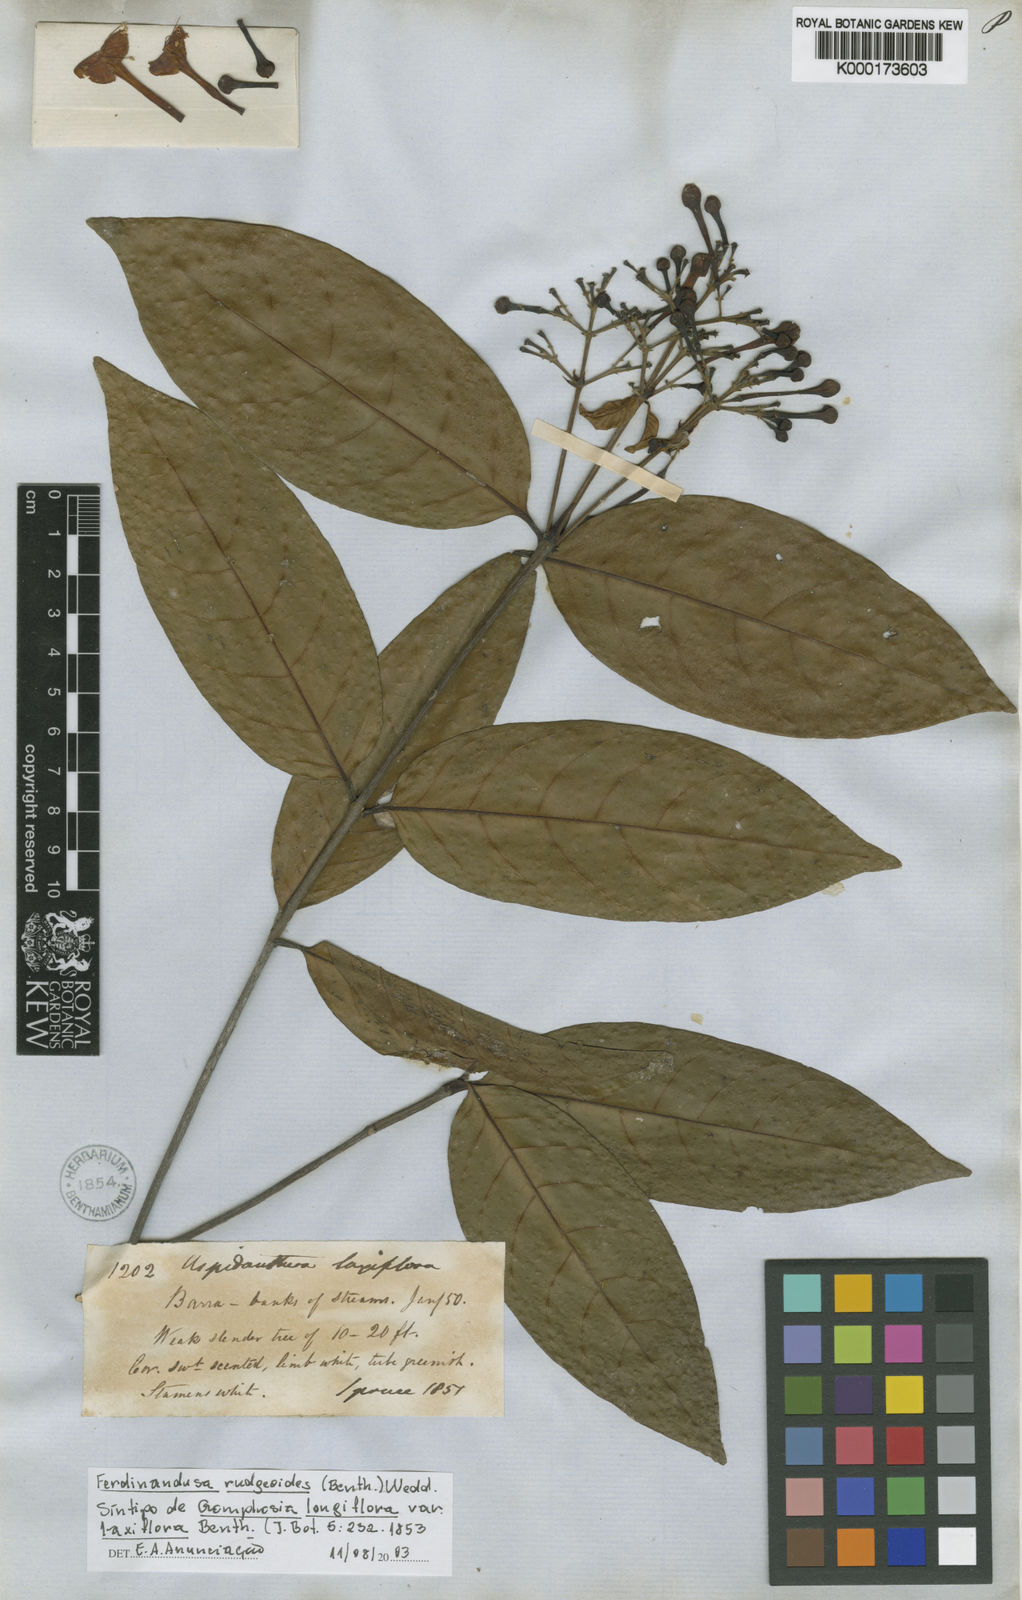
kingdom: Plantae
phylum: Tracheophyta
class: Magnoliopsida
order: Gentianales
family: Rubiaceae
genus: Ferdinandusa
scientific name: Ferdinandusa rudgeoides
